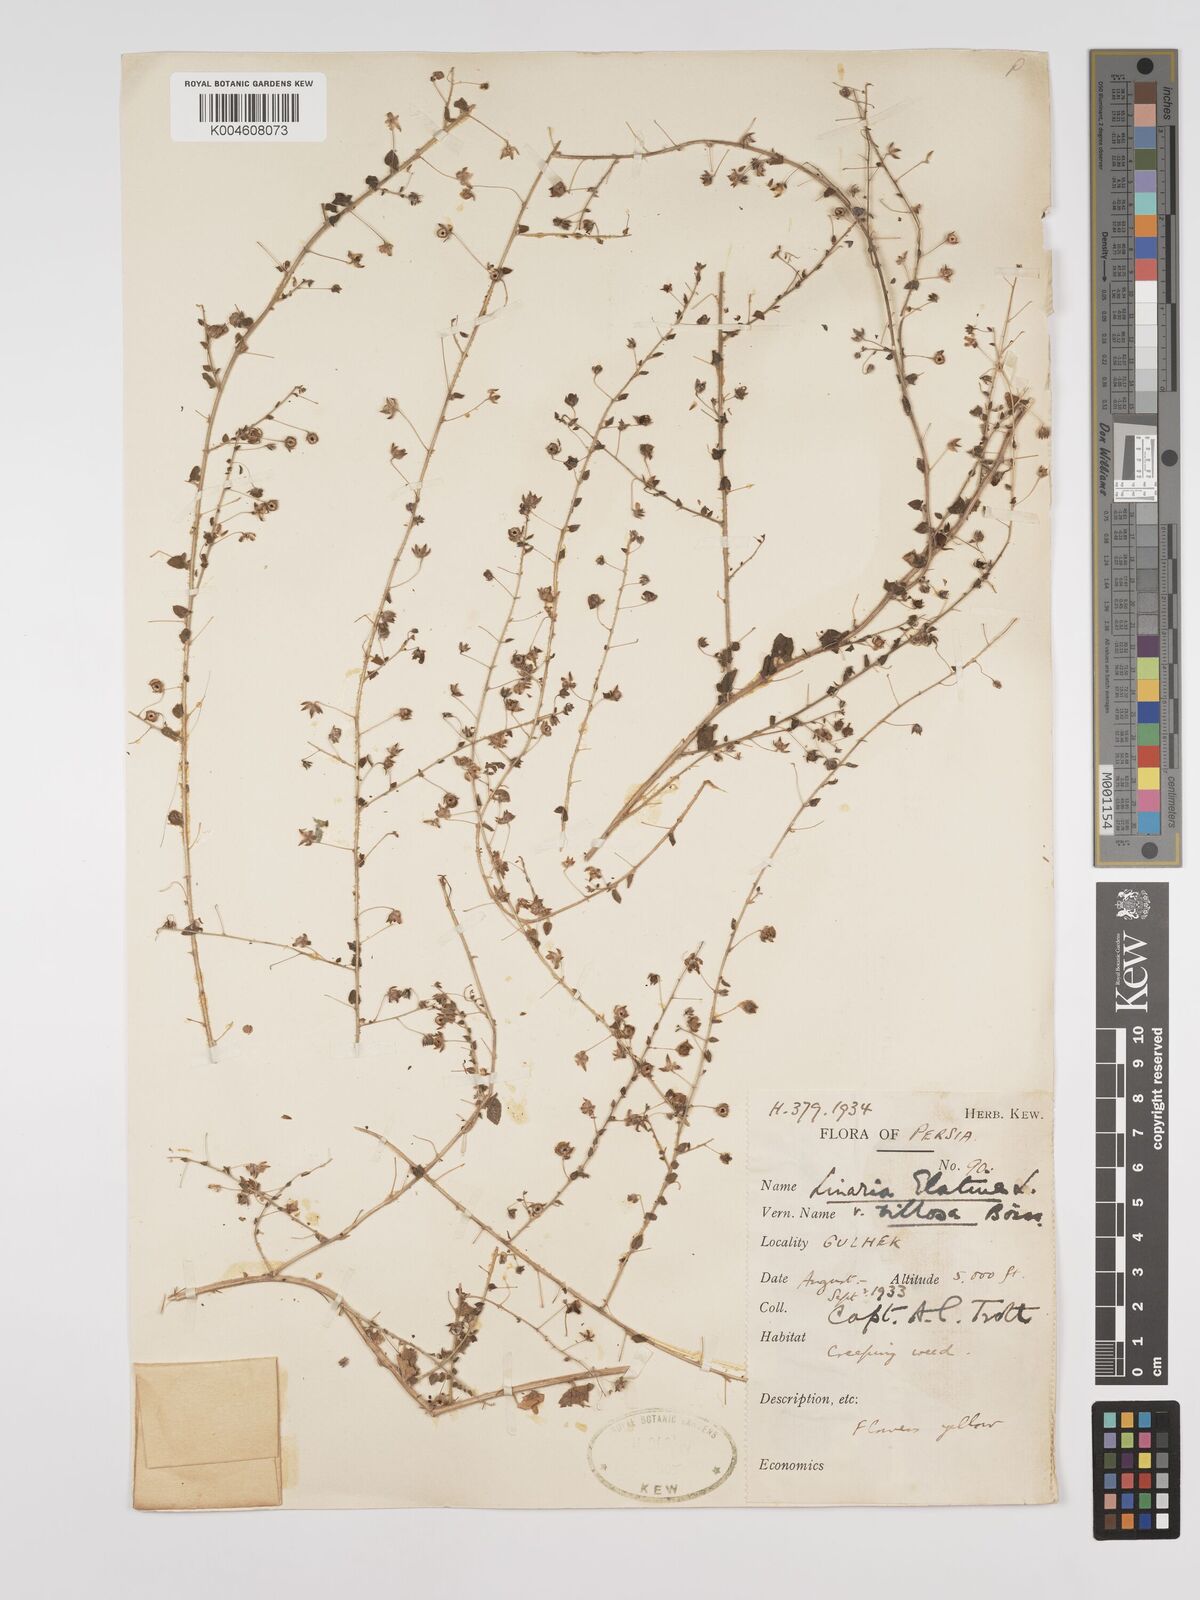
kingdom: Plantae
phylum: Tracheophyta
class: Magnoliopsida
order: Lamiales
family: Plantaginaceae
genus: Kickxia
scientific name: Kickxia elatine
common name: Sharp-leaved fluellen
